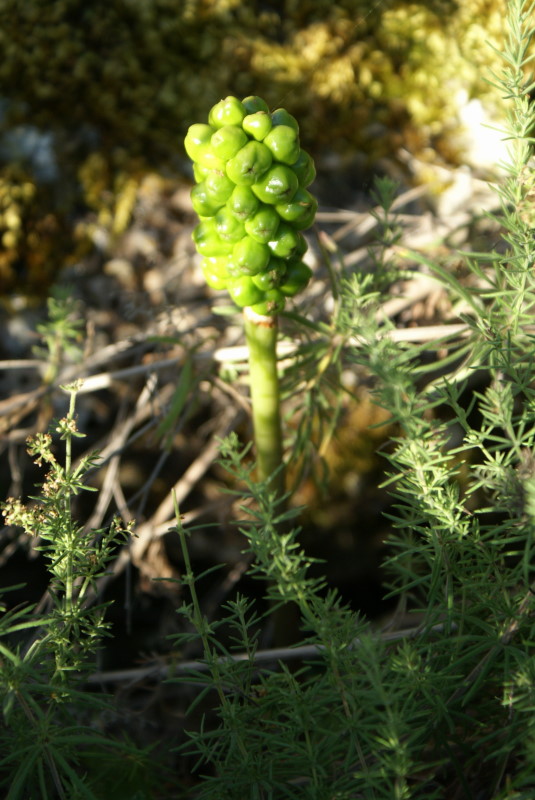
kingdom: Plantae
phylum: Tracheophyta
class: Liliopsida
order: Alismatales
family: Araceae
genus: Arum
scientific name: Arum
